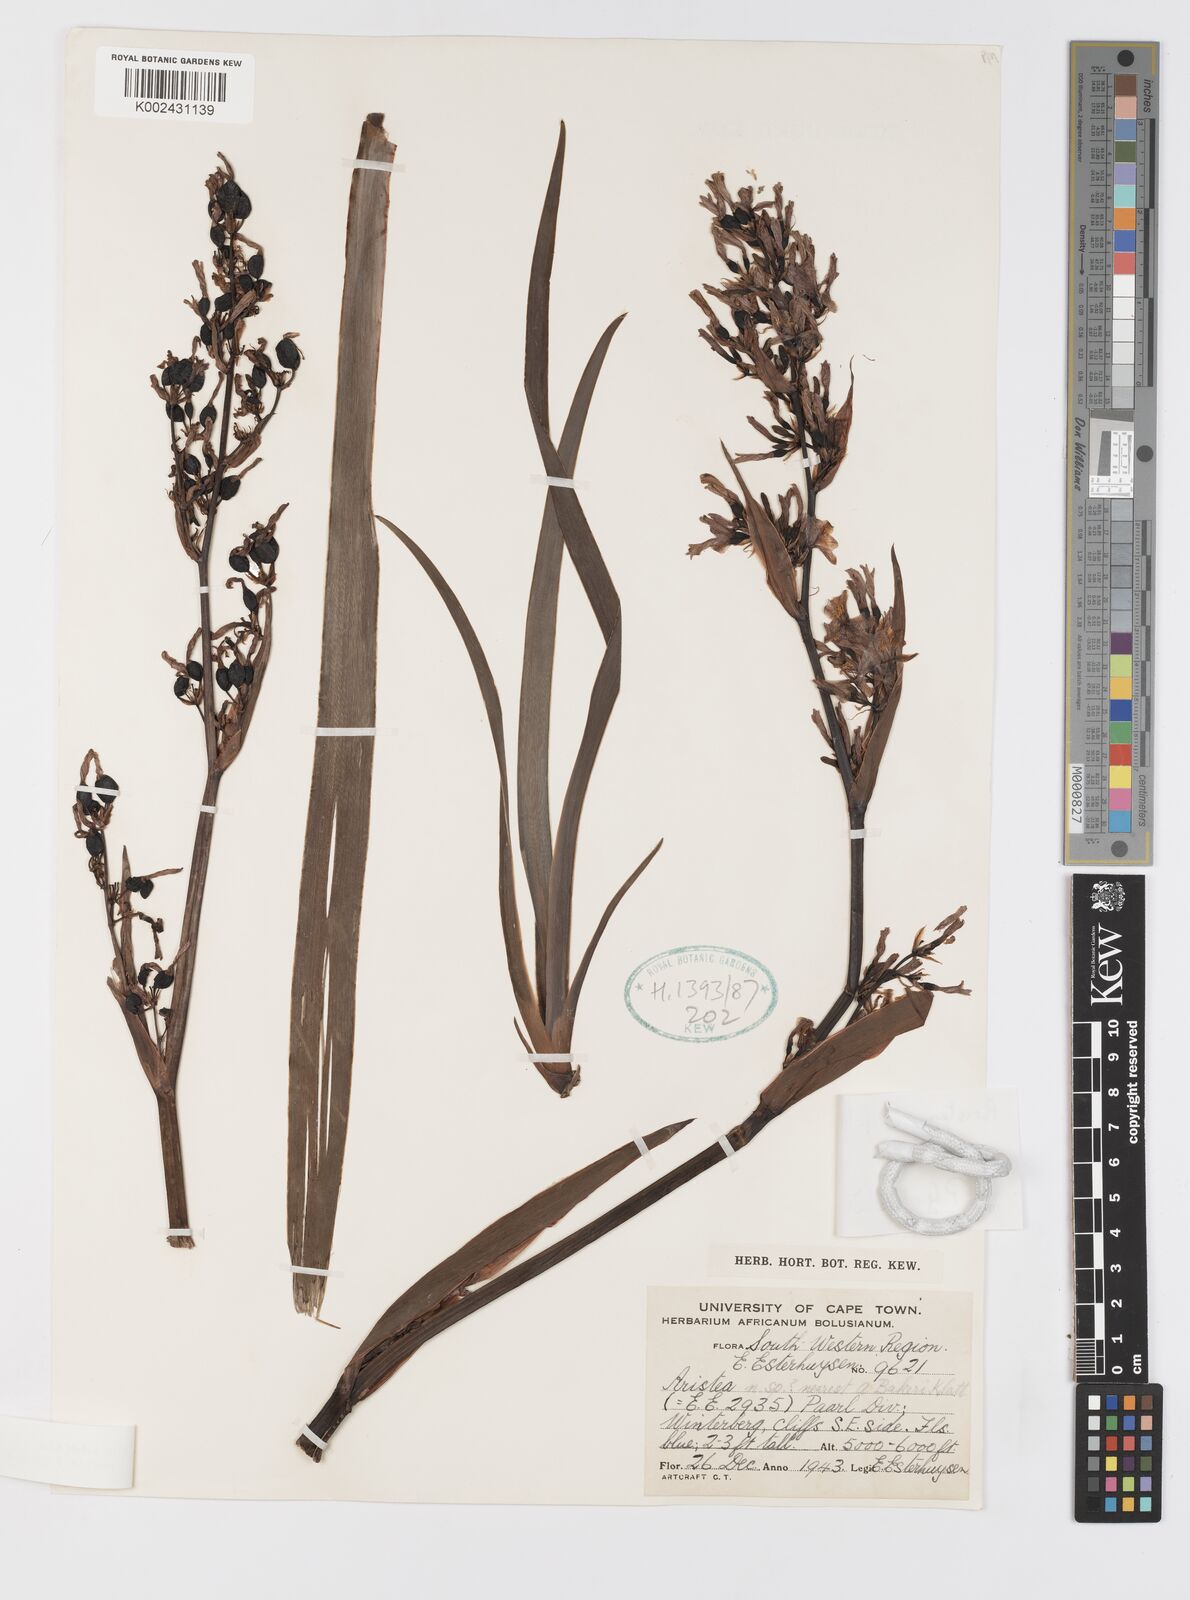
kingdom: Plantae
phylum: Tracheophyta
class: Liliopsida
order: Asparagales
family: Iridaceae
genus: Aristea
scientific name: Aristea latifolia
